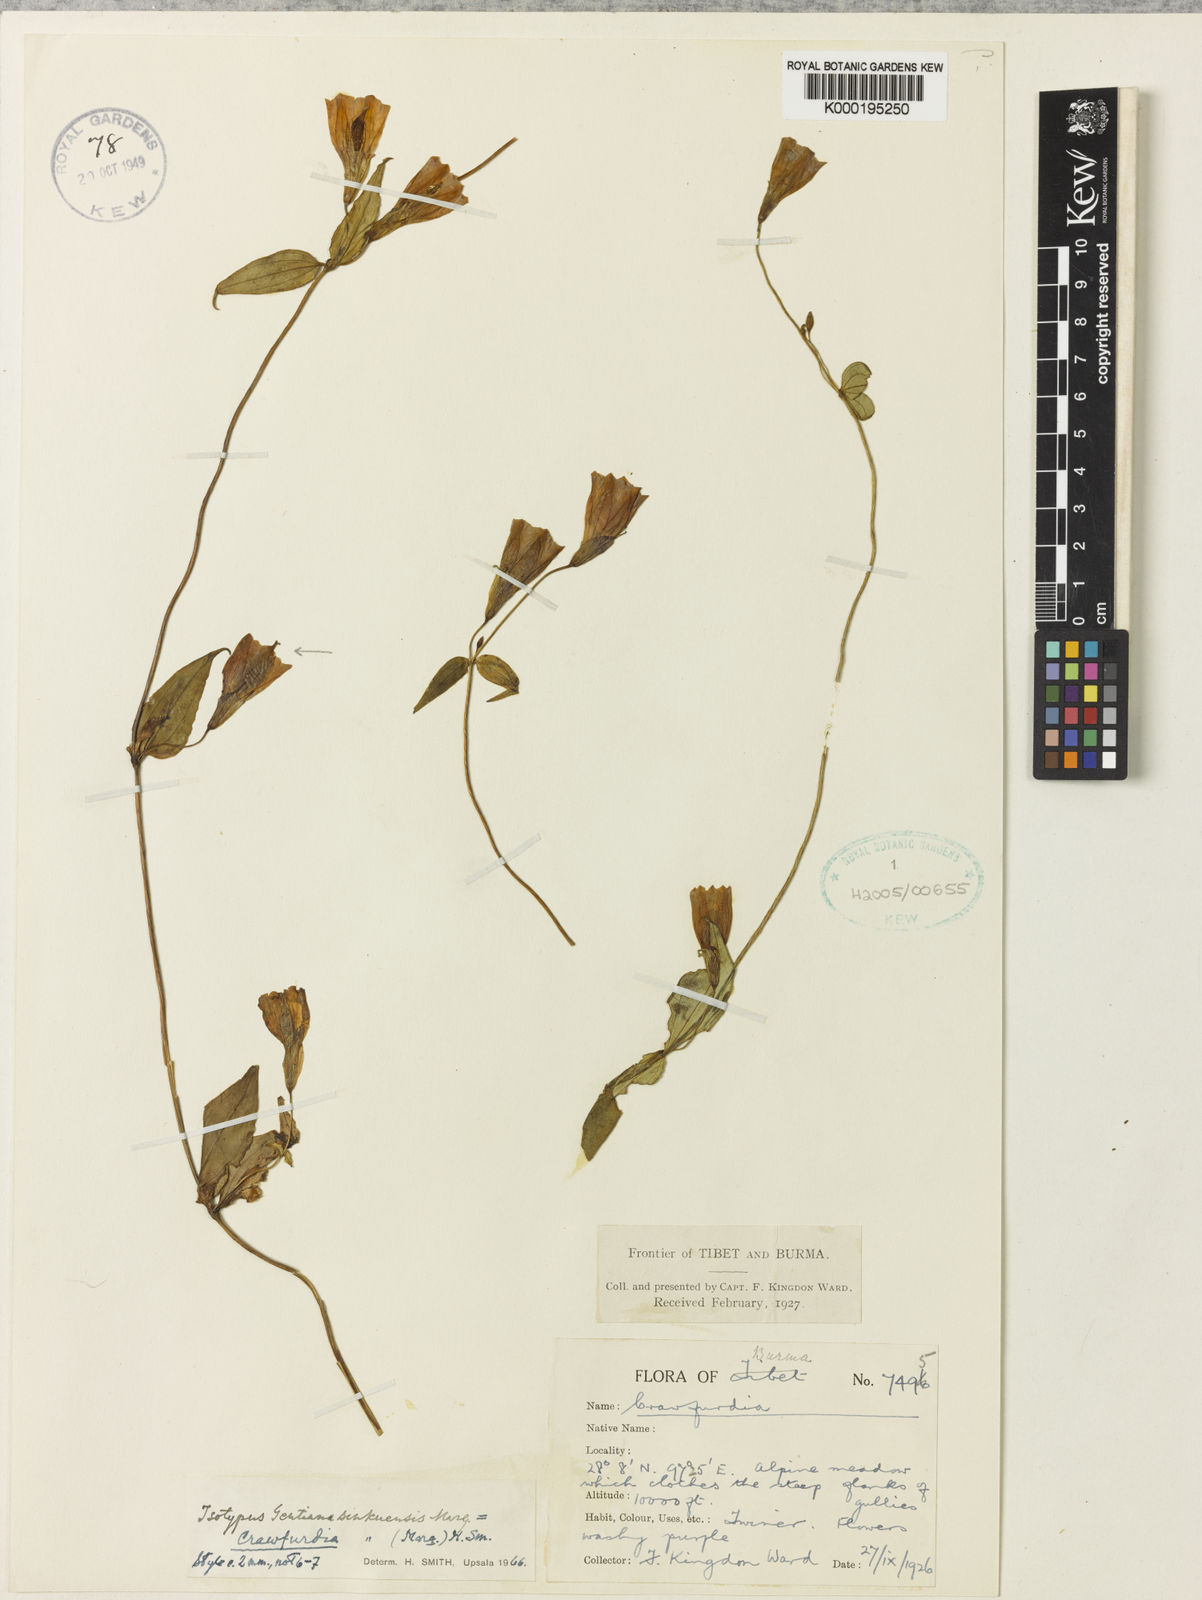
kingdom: Plantae
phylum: Tracheophyta
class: Magnoliopsida
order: Gentianales
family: Gentianaceae
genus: Crawfurdia
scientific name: Crawfurdia sinkuensis
